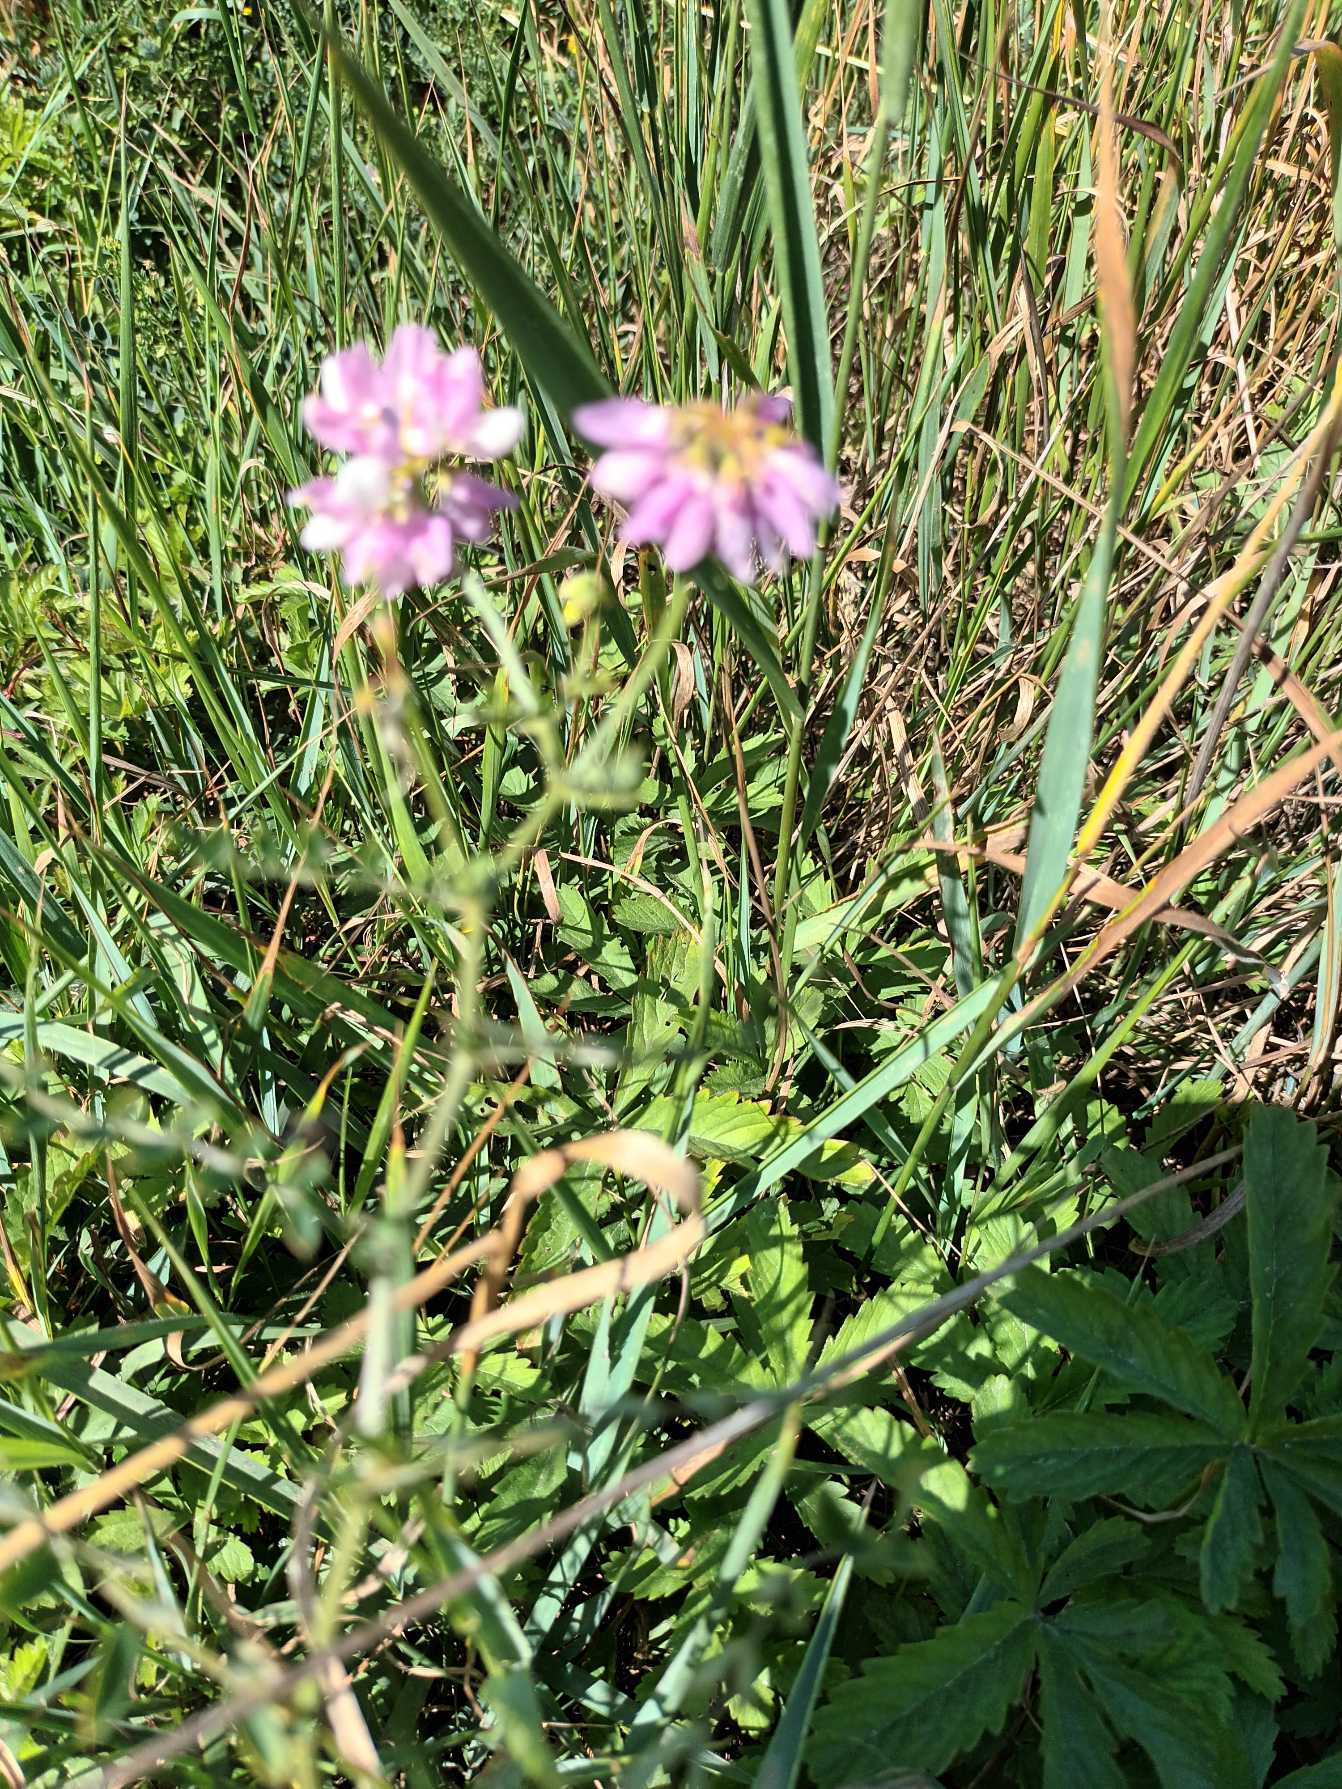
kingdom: Plantae
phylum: Tracheophyta
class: Magnoliopsida
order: Fabales
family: Fabaceae
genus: Coronilla
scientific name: Coronilla varia
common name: Giftig kronvikke
